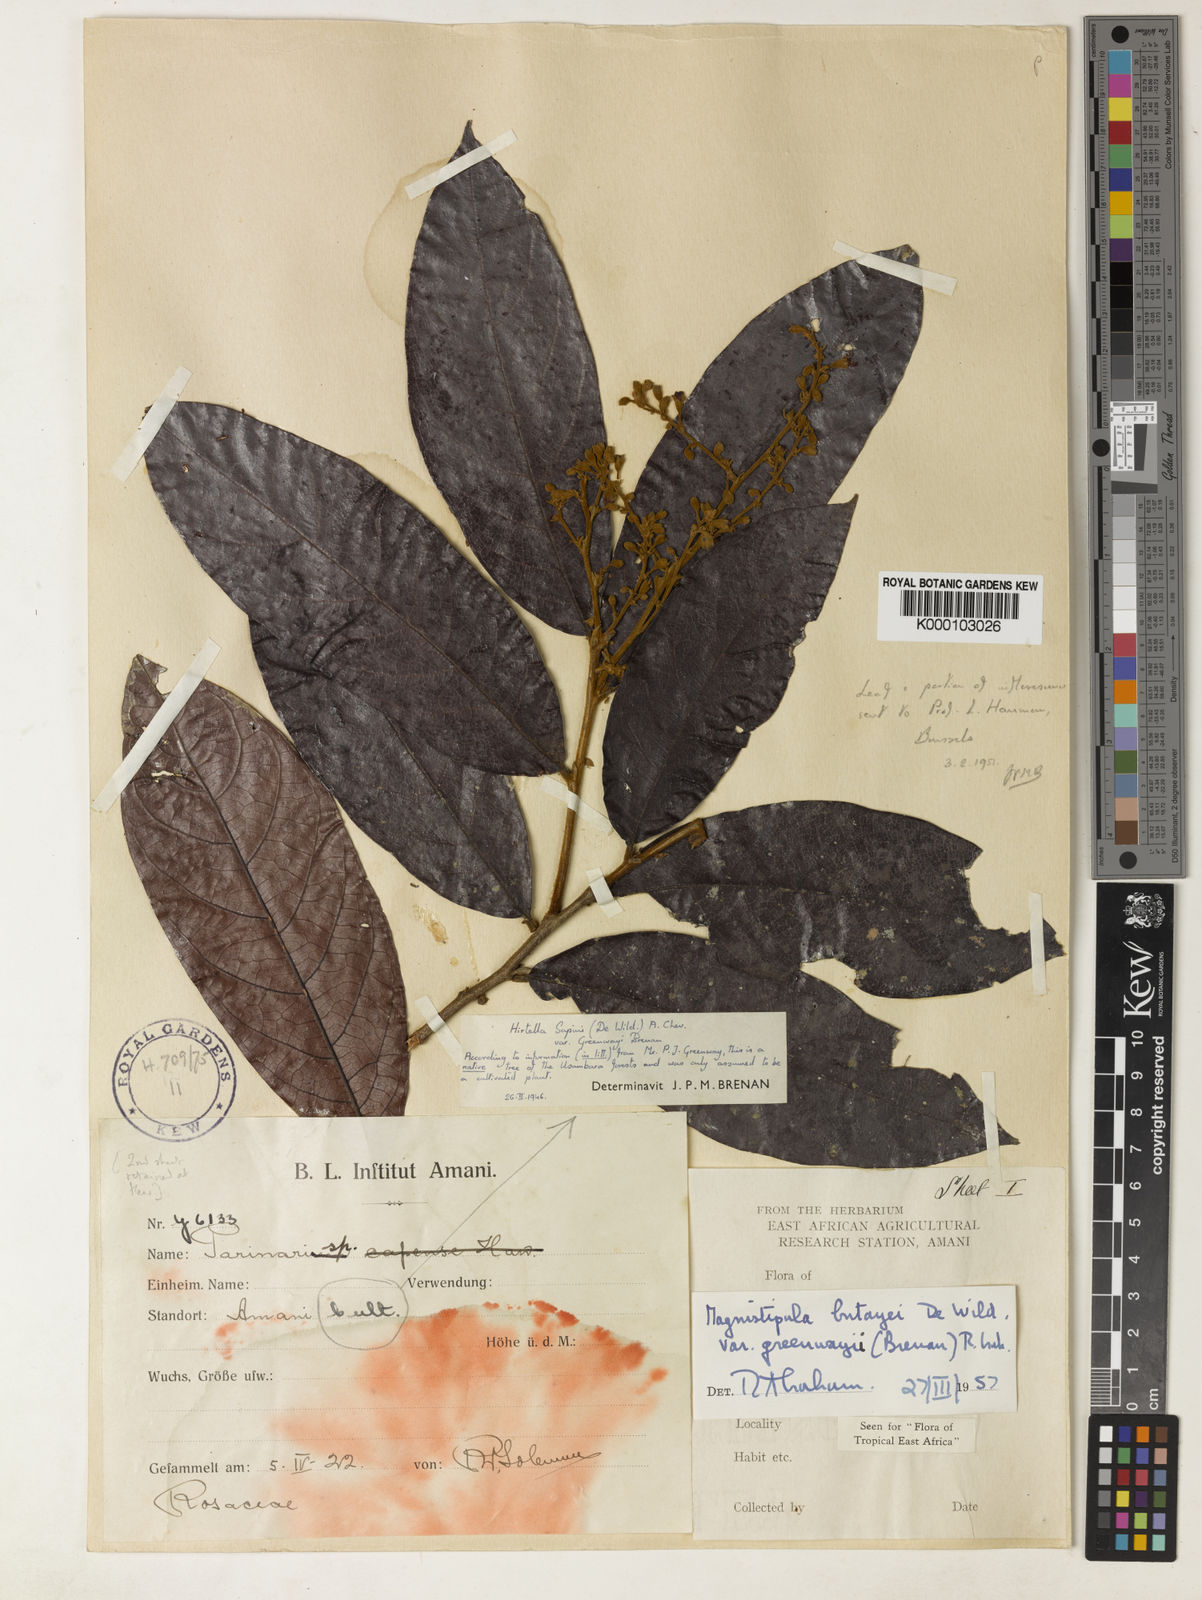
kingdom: Plantae
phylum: Tracheophyta
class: Magnoliopsida
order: Malpighiales
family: Chrysobalanaceae
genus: Magnistipula
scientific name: Magnistipula butayei
